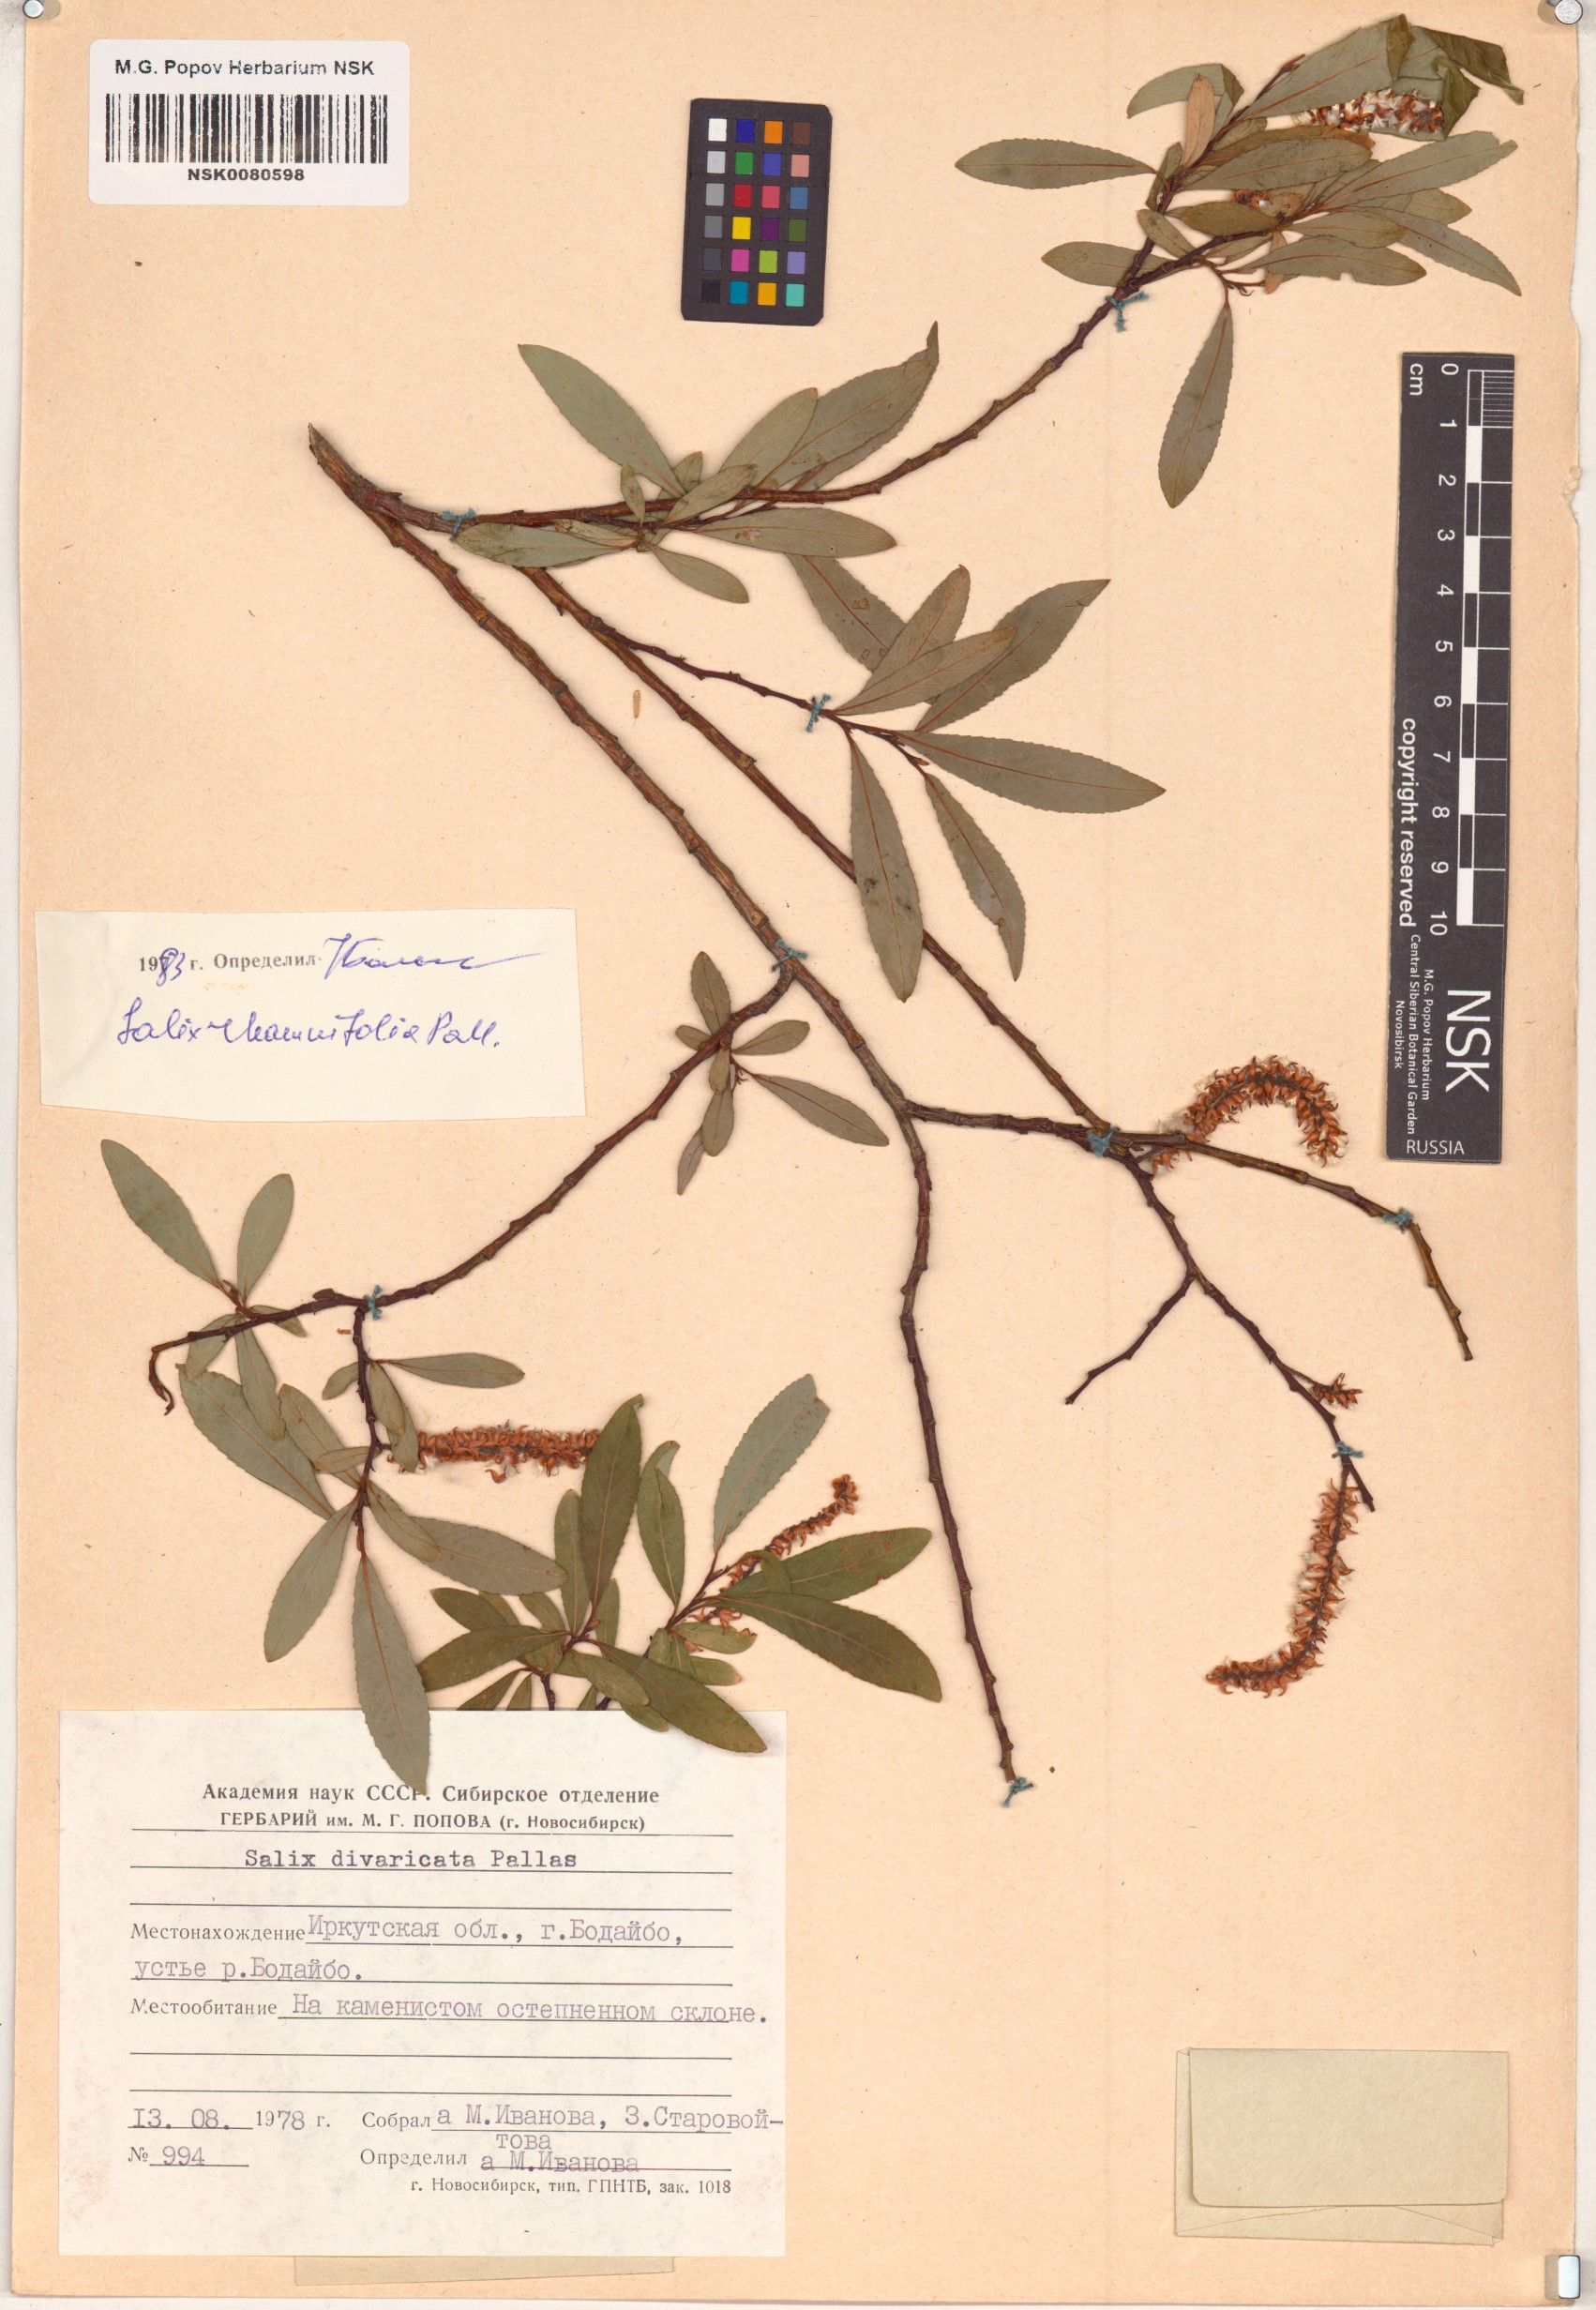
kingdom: Plantae
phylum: Tracheophyta
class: Magnoliopsida
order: Malpighiales
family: Salicaceae
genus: Salix
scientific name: Salix rhamnifolia
